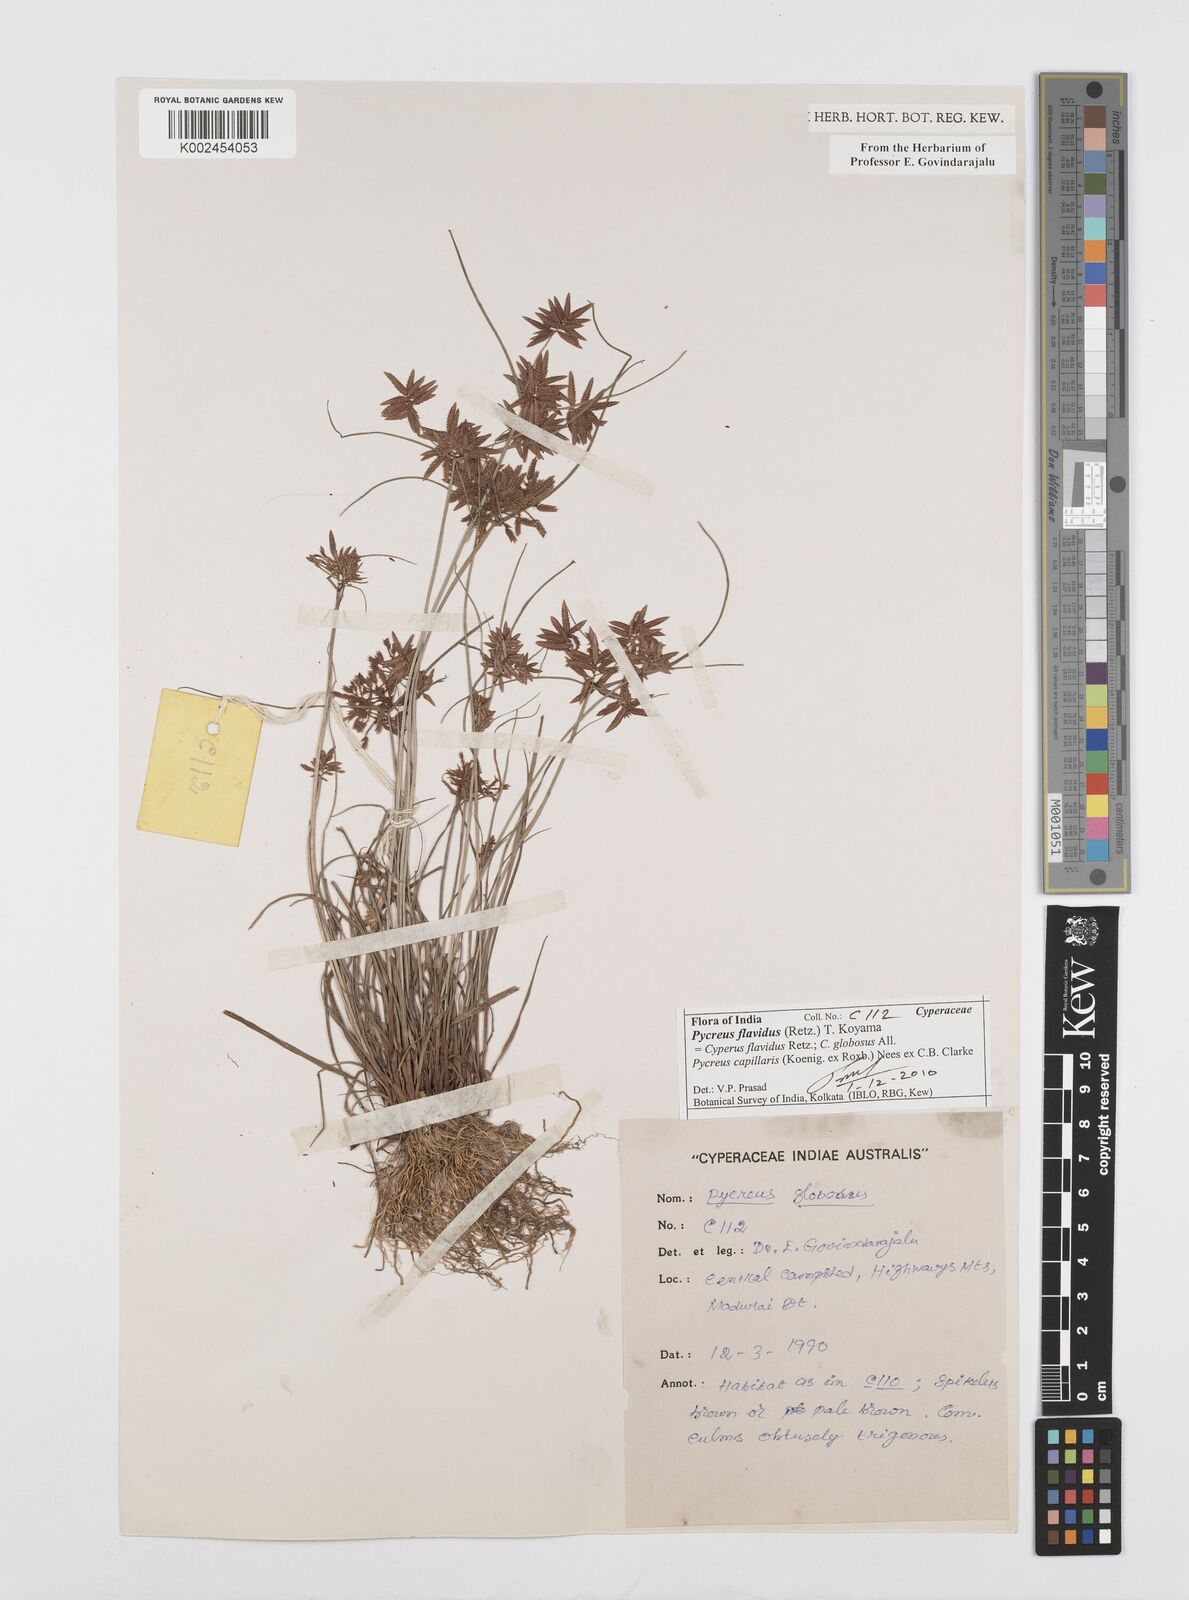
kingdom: Plantae
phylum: Tracheophyta
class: Liliopsida
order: Poales
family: Cyperaceae
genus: Cyperus
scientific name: Cyperus flavidus
